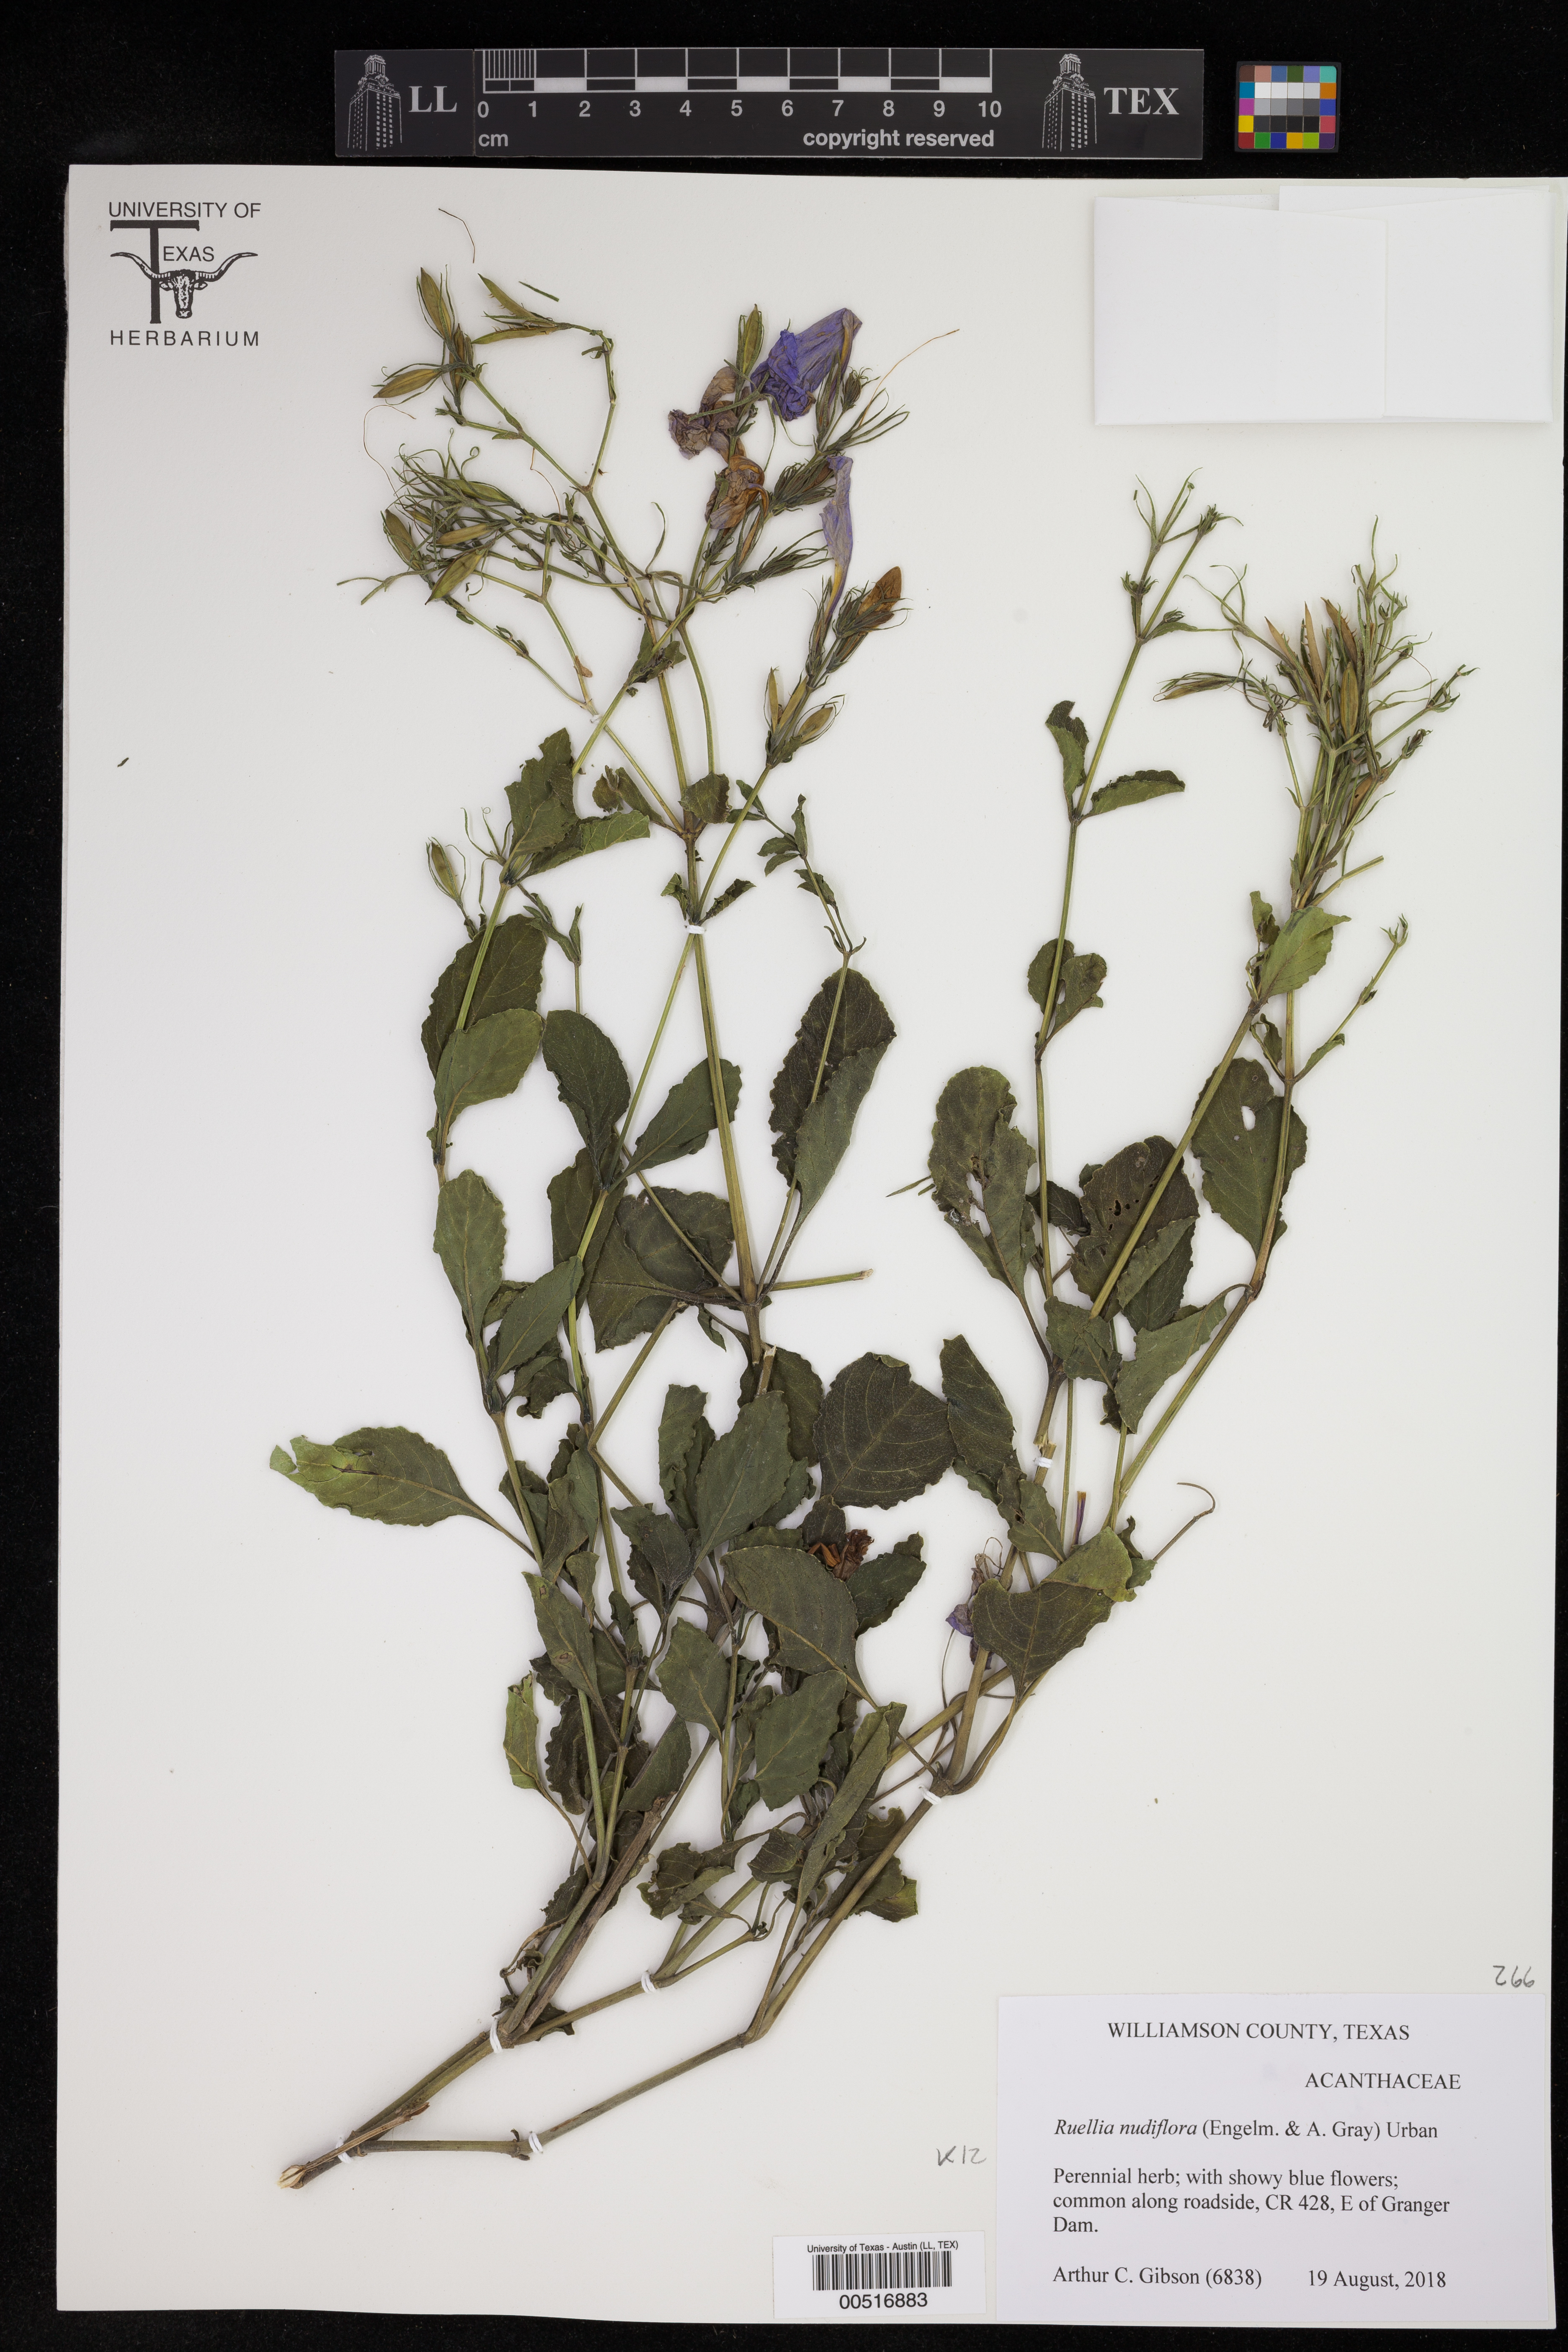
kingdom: Plantae
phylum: Tracheophyta
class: Magnoliopsida
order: Lamiales
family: Acanthaceae
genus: Ruellia
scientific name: Ruellia ciliatiflora
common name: Hairyflower wild petunia
